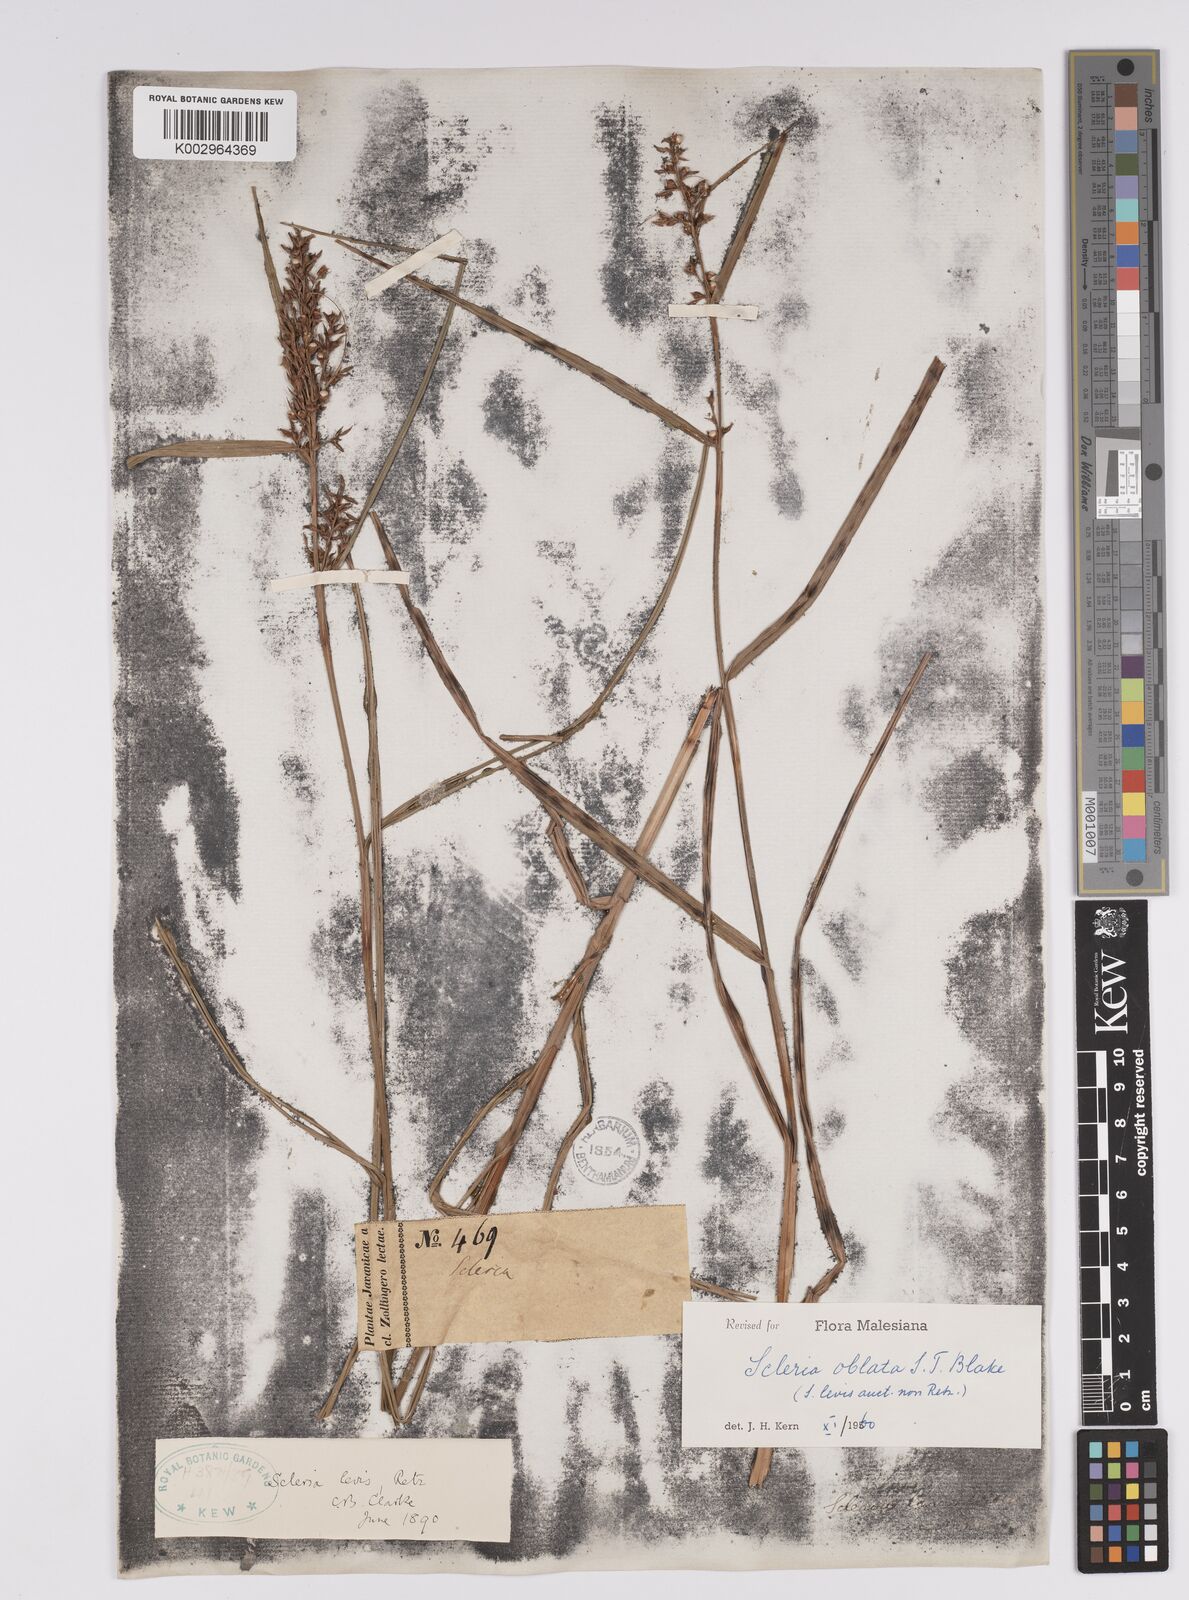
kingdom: Plantae
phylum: Tracheophyta
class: Liliopsida
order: Poales
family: Cyperaceae
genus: Scleria
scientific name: Scleria oblata
